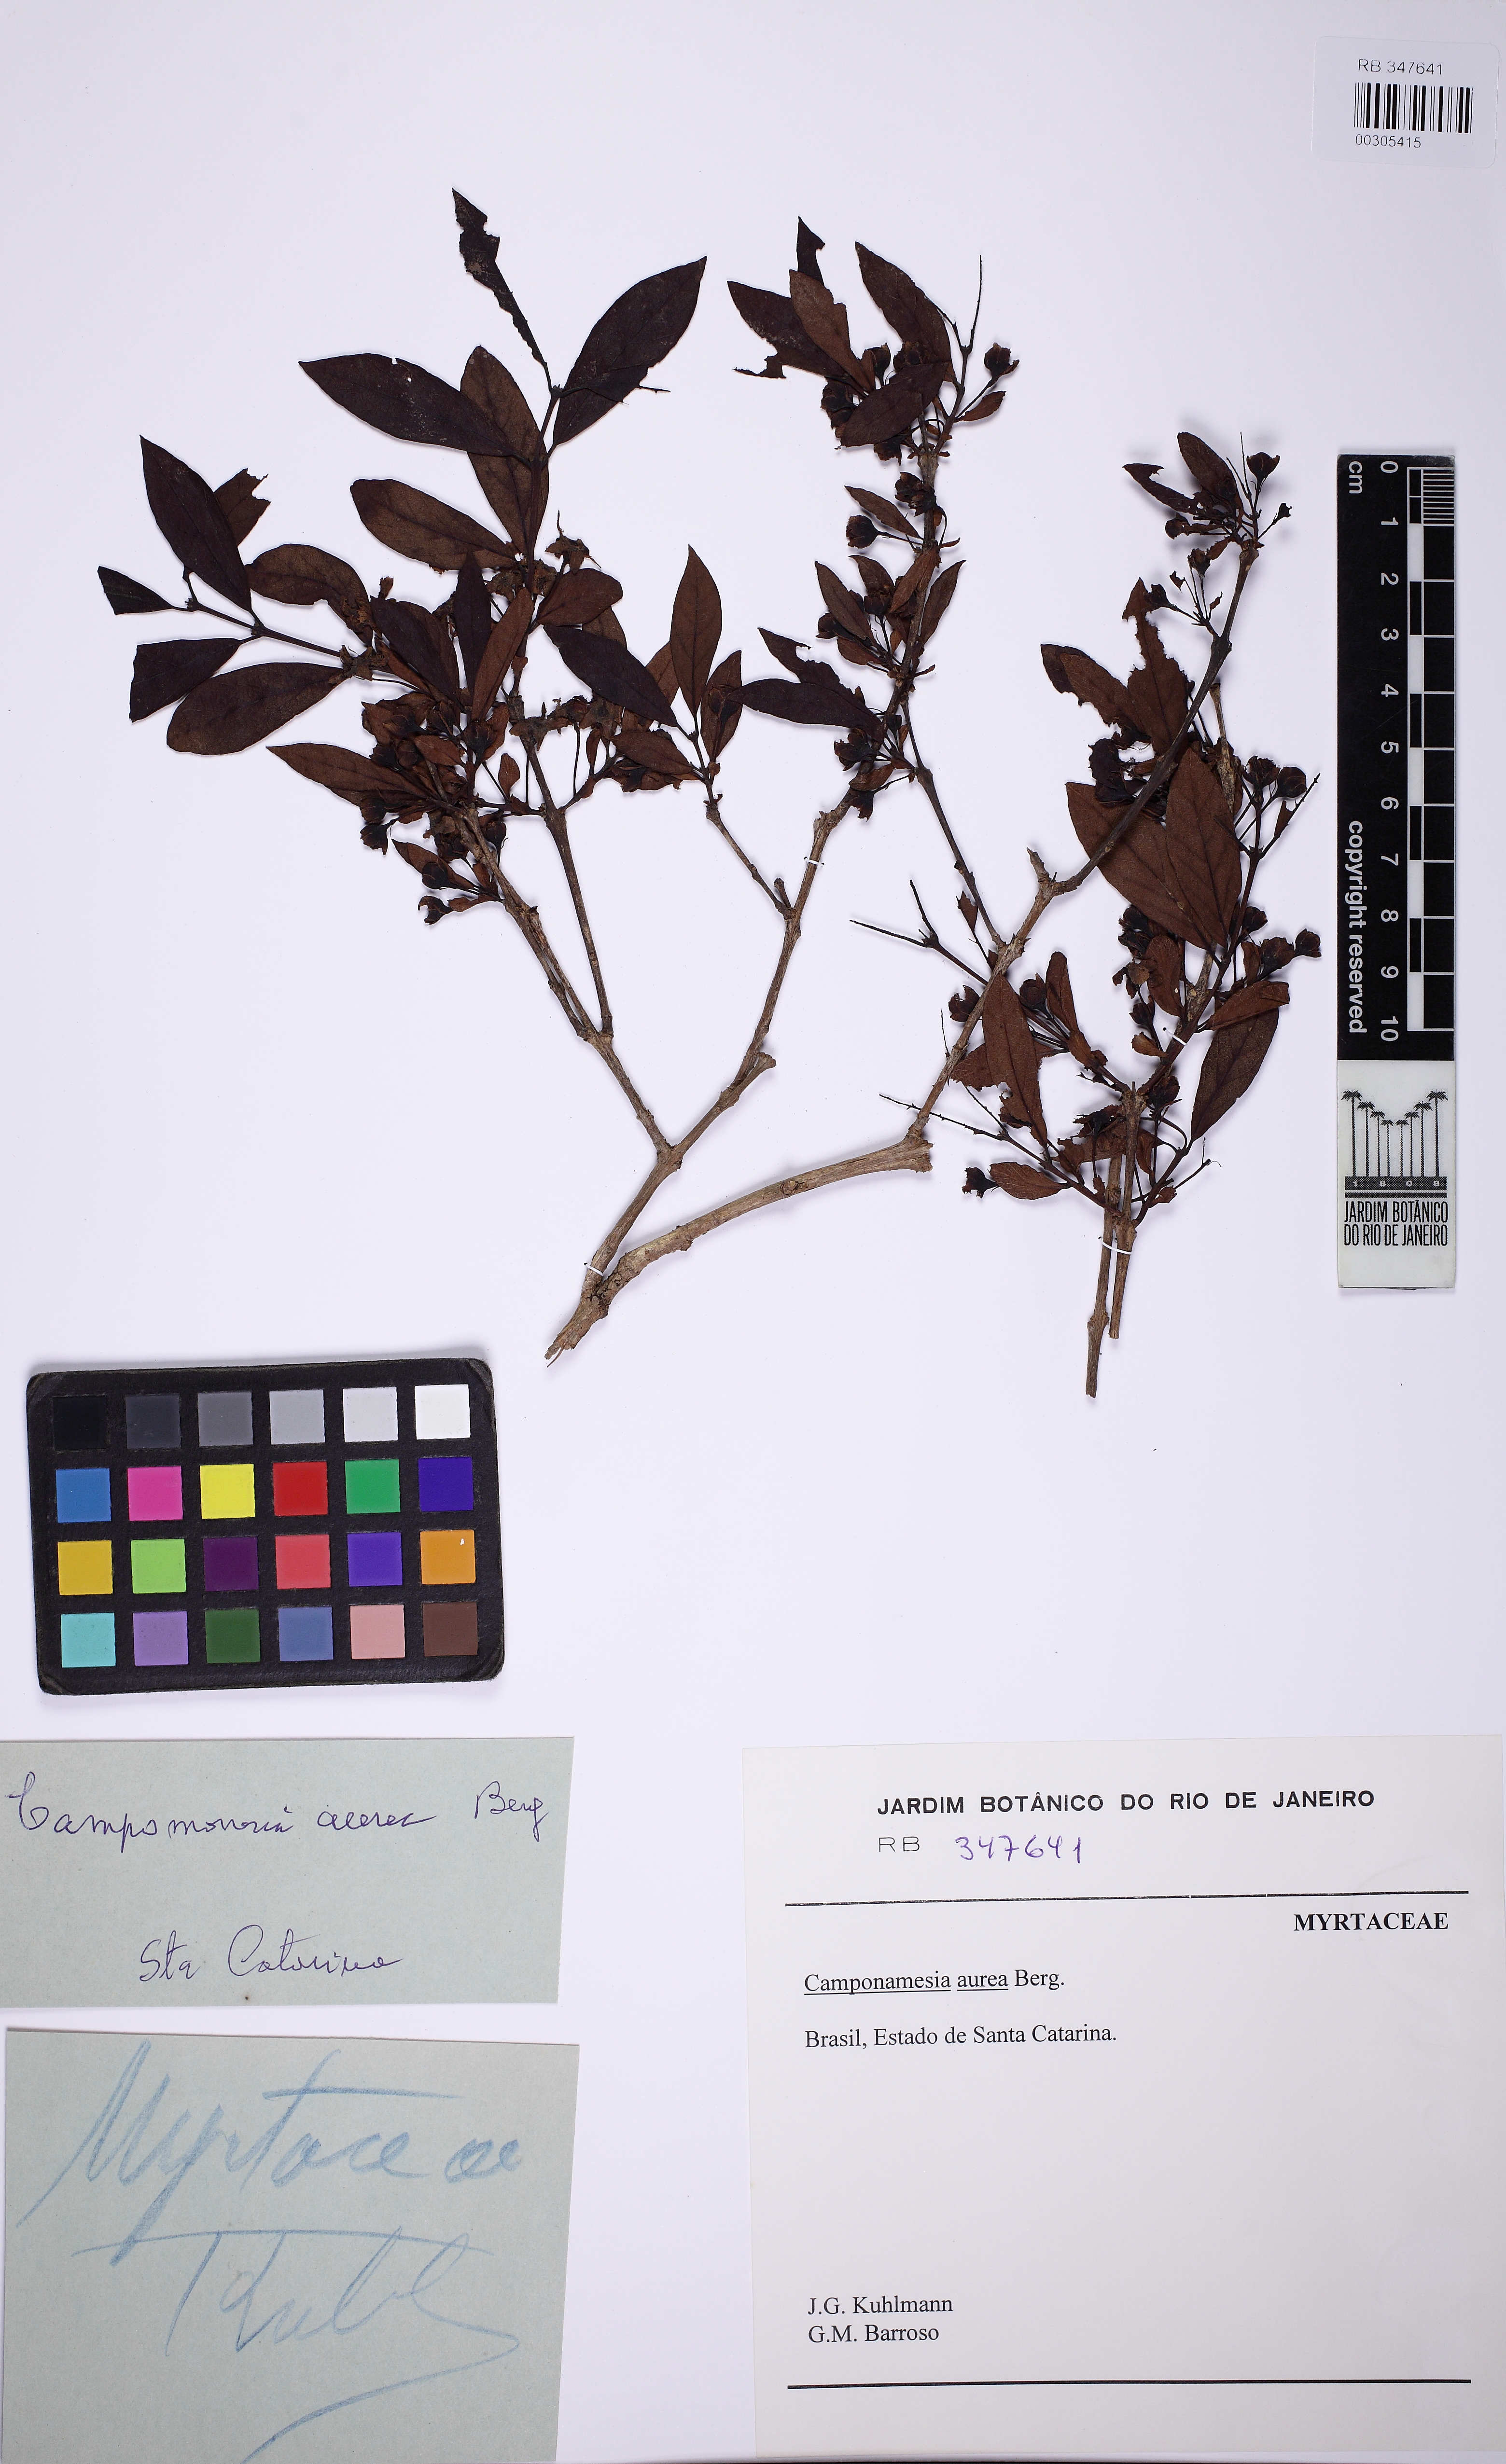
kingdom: Plantae
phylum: Tracheophyta
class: Magnoliopsida
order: Myrtales
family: Myrtaceae
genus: Campomanesia
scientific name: Campomanesia aurea
